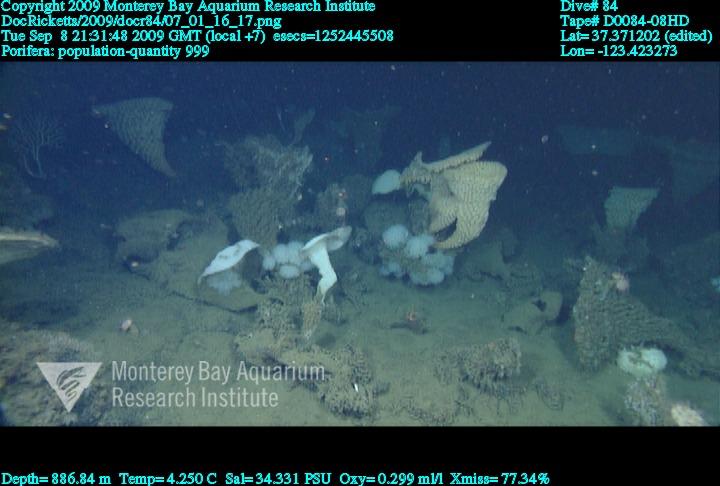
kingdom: Animalia
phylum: Porifera
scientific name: Porifera
